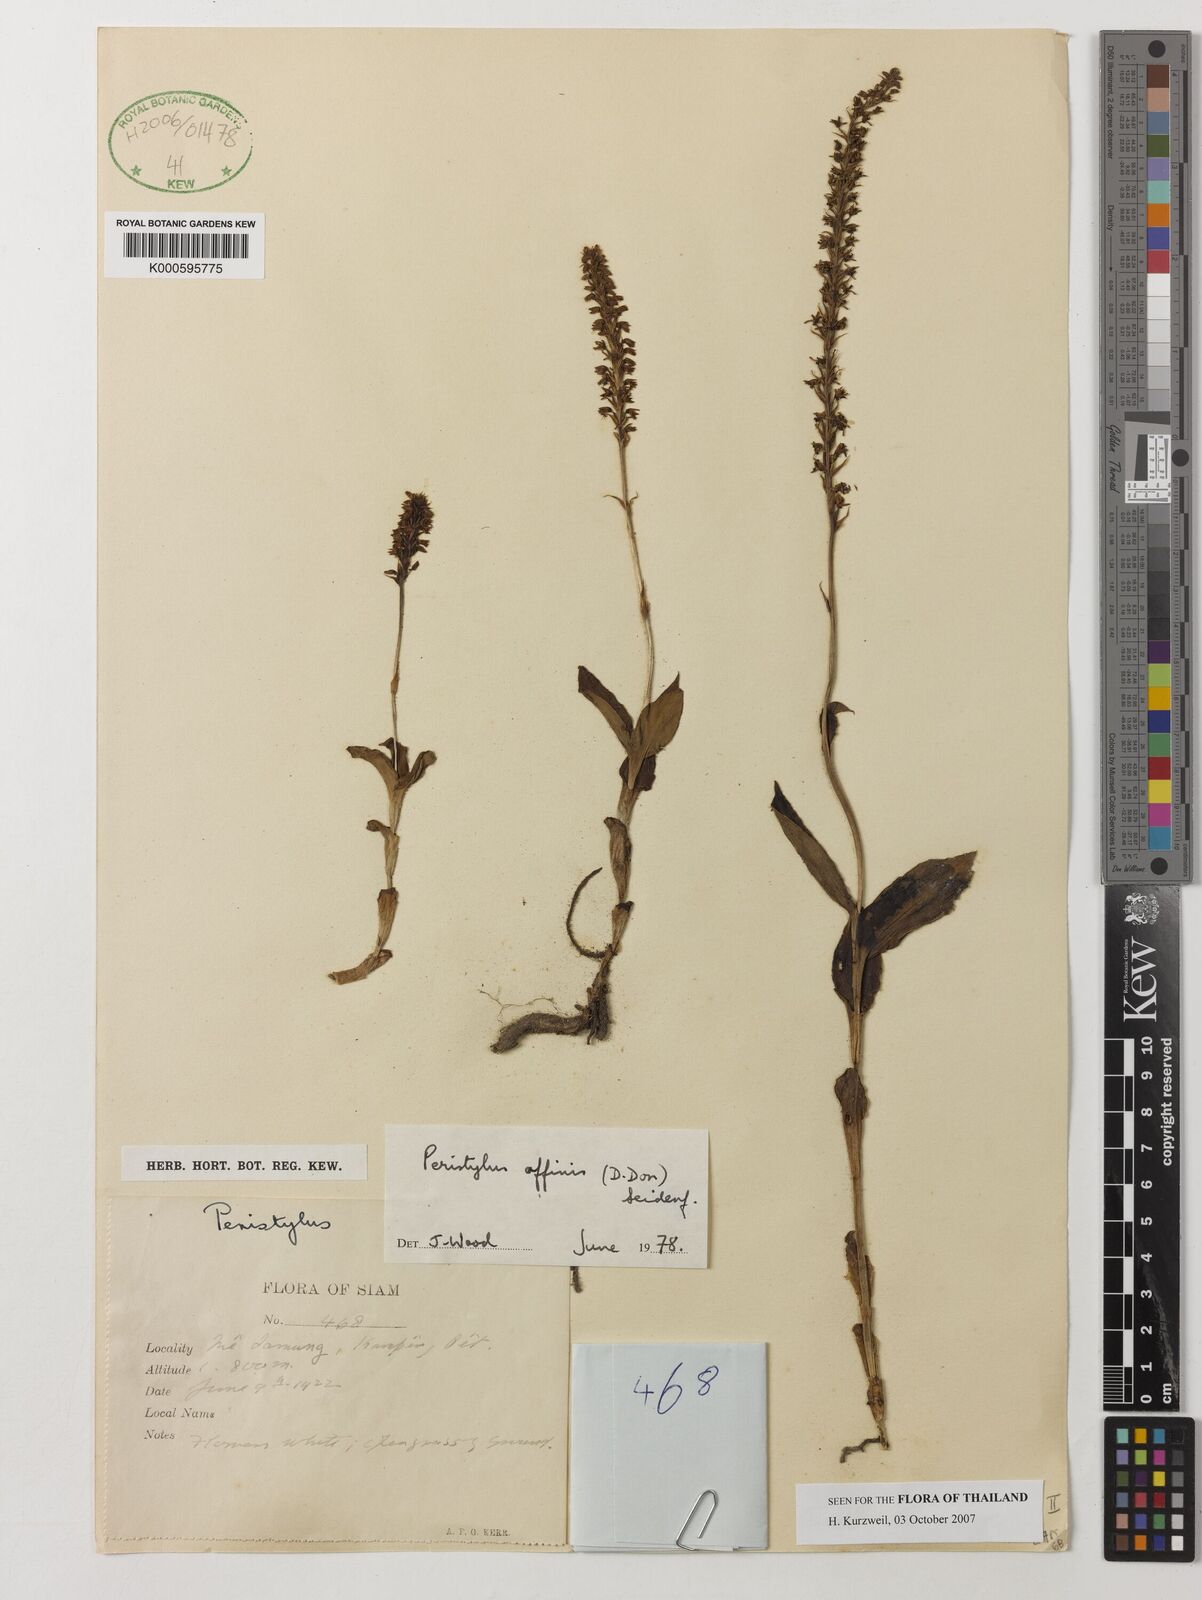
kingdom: Plantae
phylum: Tracheophyta
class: Liliopsida
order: Asparagales
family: Orchidaceae
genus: Peristylus
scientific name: Peristylus affinis
